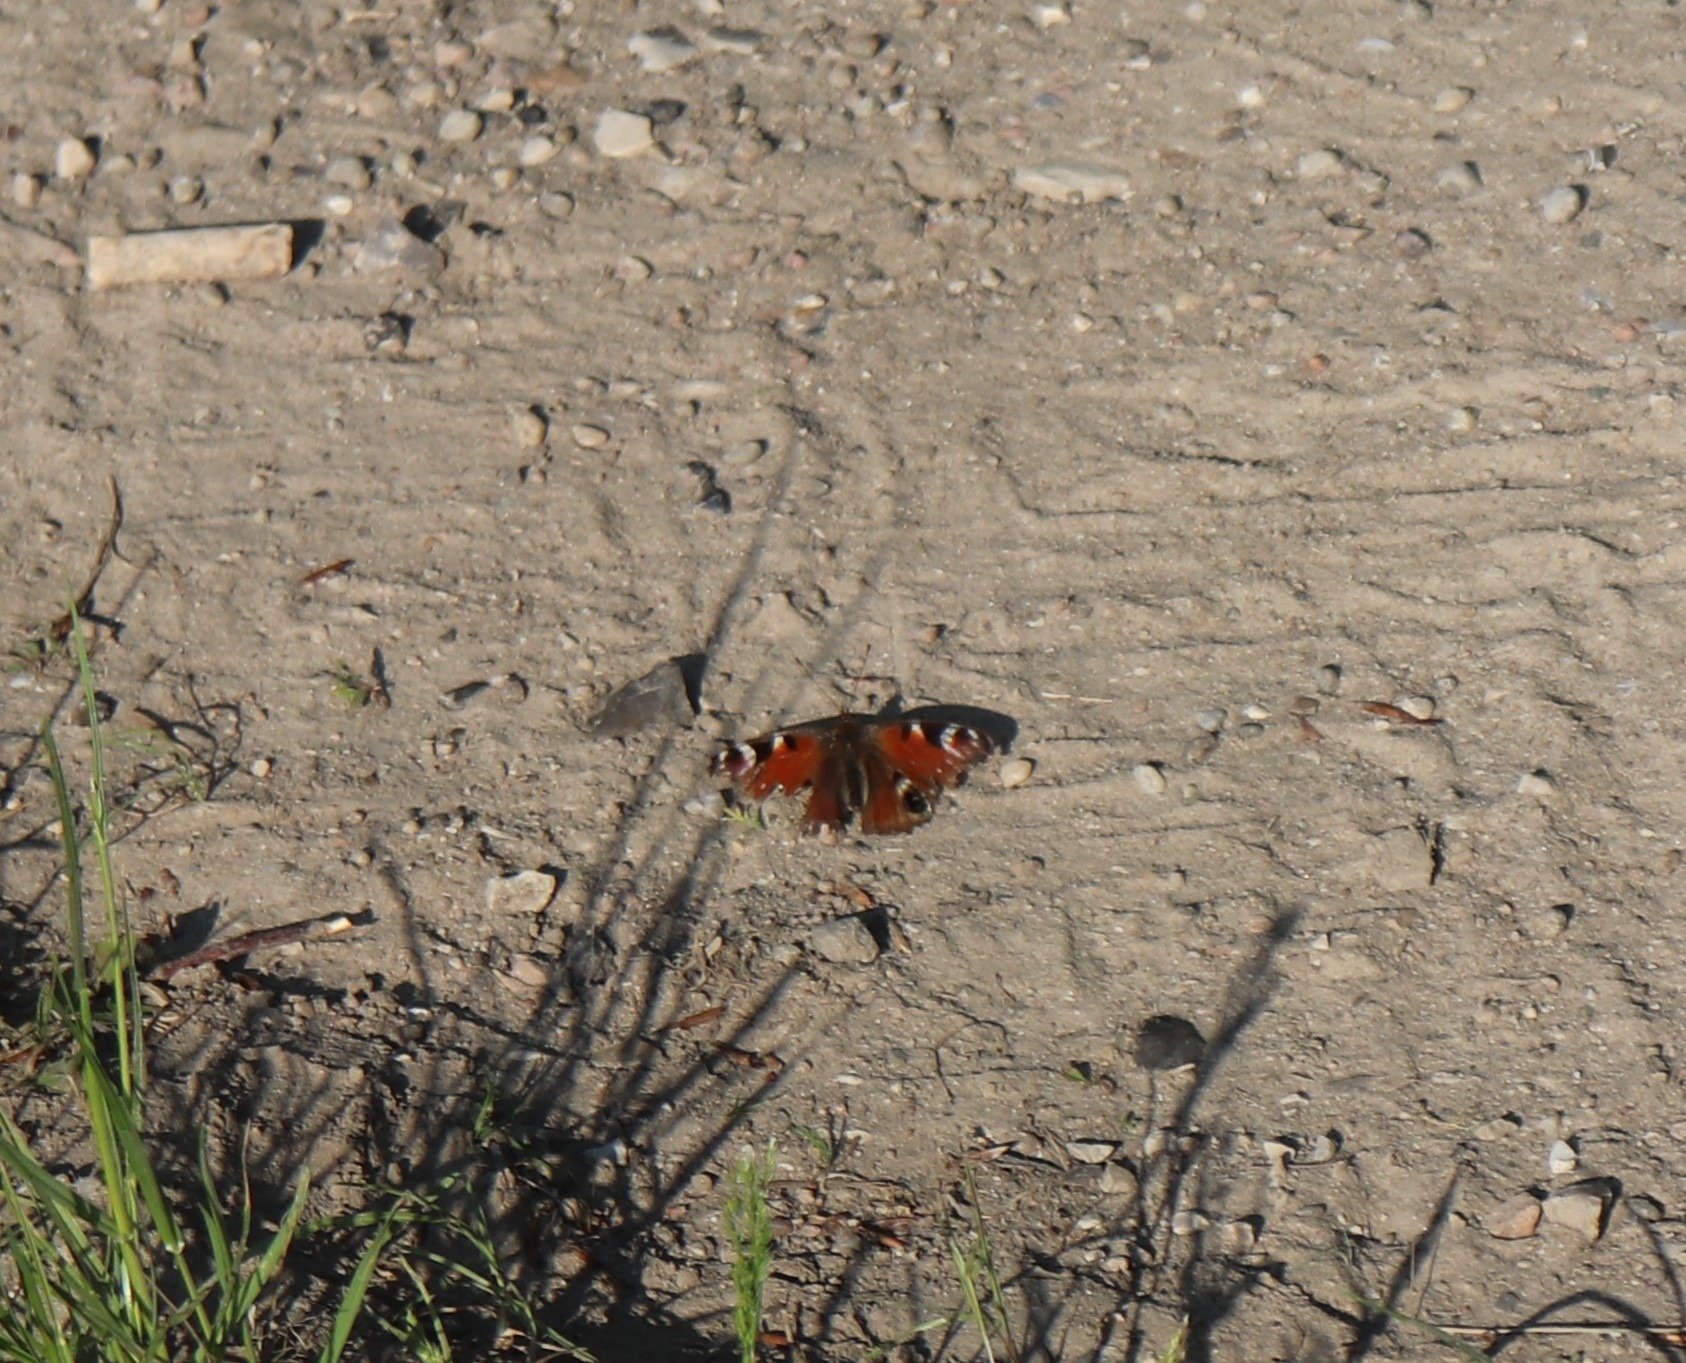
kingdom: Animalia
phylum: Arthropoda
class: Insecta
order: Lepidoptera
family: Nymphalidae
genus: Aglais
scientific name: Aglais io
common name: Dagpåfugleøje
